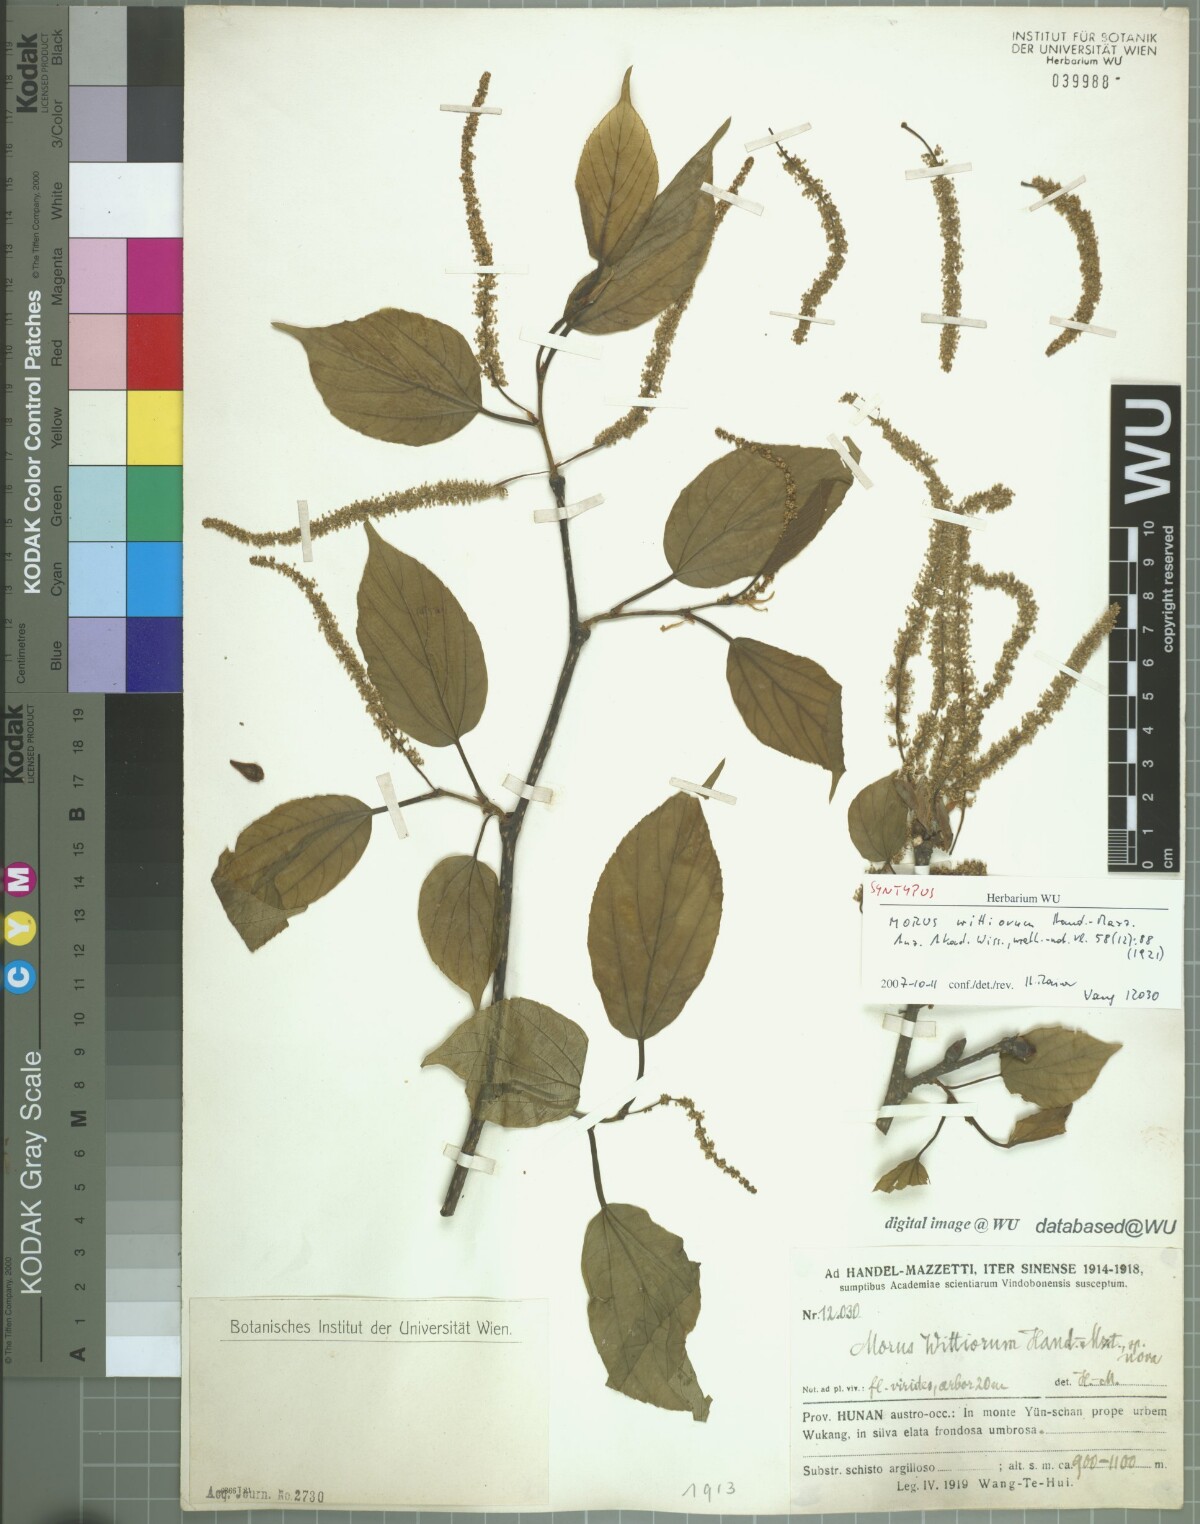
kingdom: Plantae
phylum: Tracheophyta
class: Magnoliopsida
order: Rosales
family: Moraceae
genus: Morus
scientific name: Morus wittiorum
